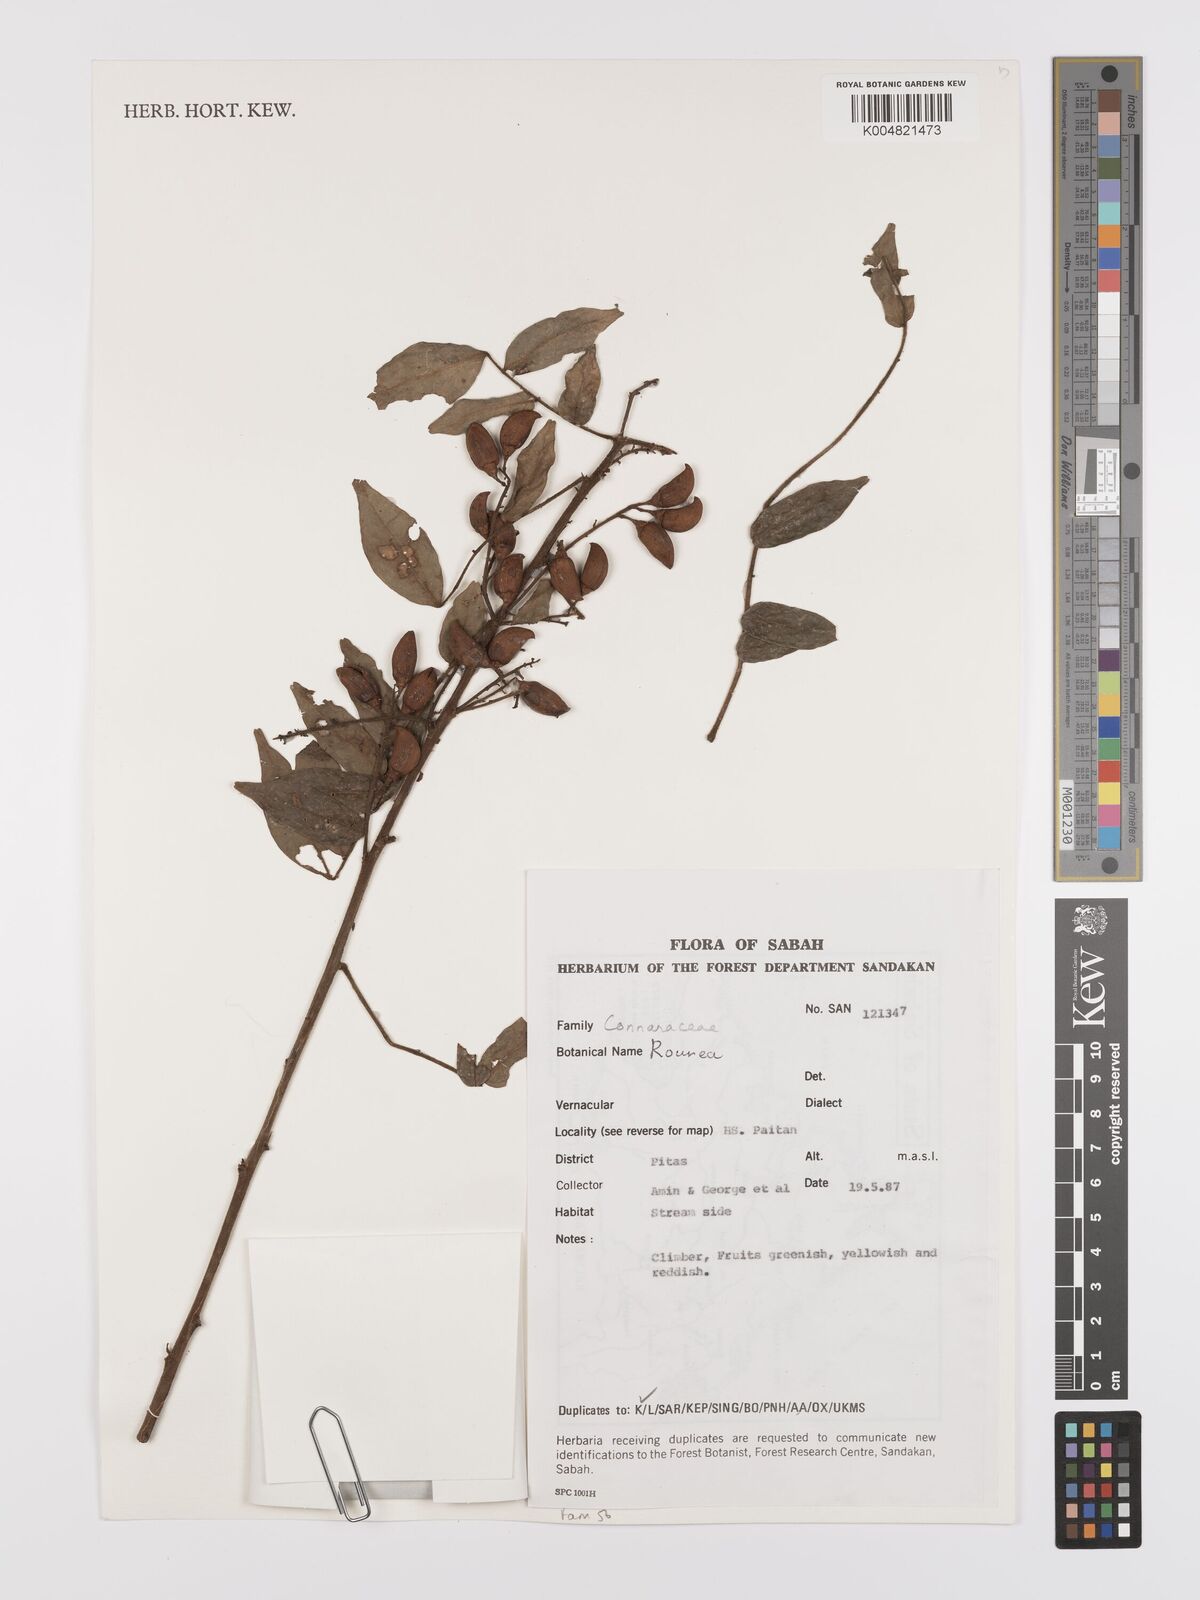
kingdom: Plantae
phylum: Tracheophyta
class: Magnoliopsida
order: Oxalidales
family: Connaraceae
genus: Rourea
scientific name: Rourea
